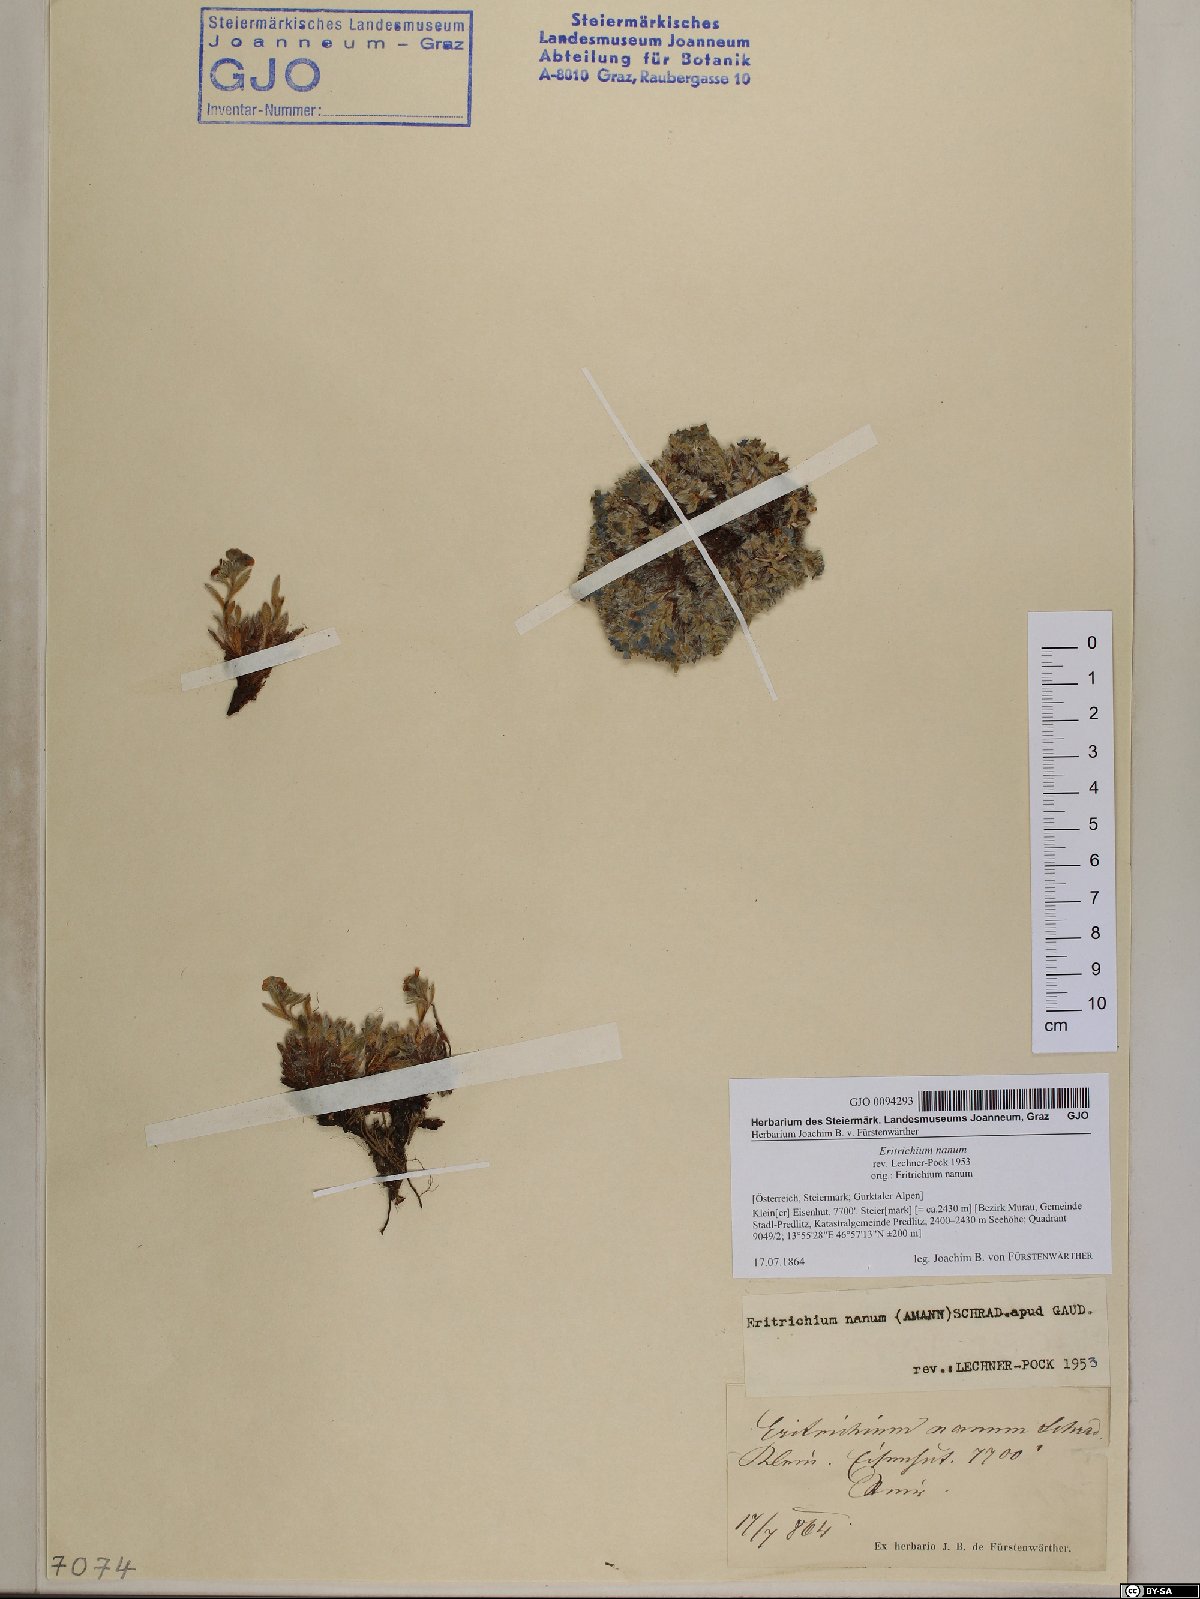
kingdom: Plantae
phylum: Tracheophyta
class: Magnoliopsida
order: Boraginales
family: Boraginaceae
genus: Eritrichium
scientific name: Eritrichium nanum
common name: King-of-the-alps
